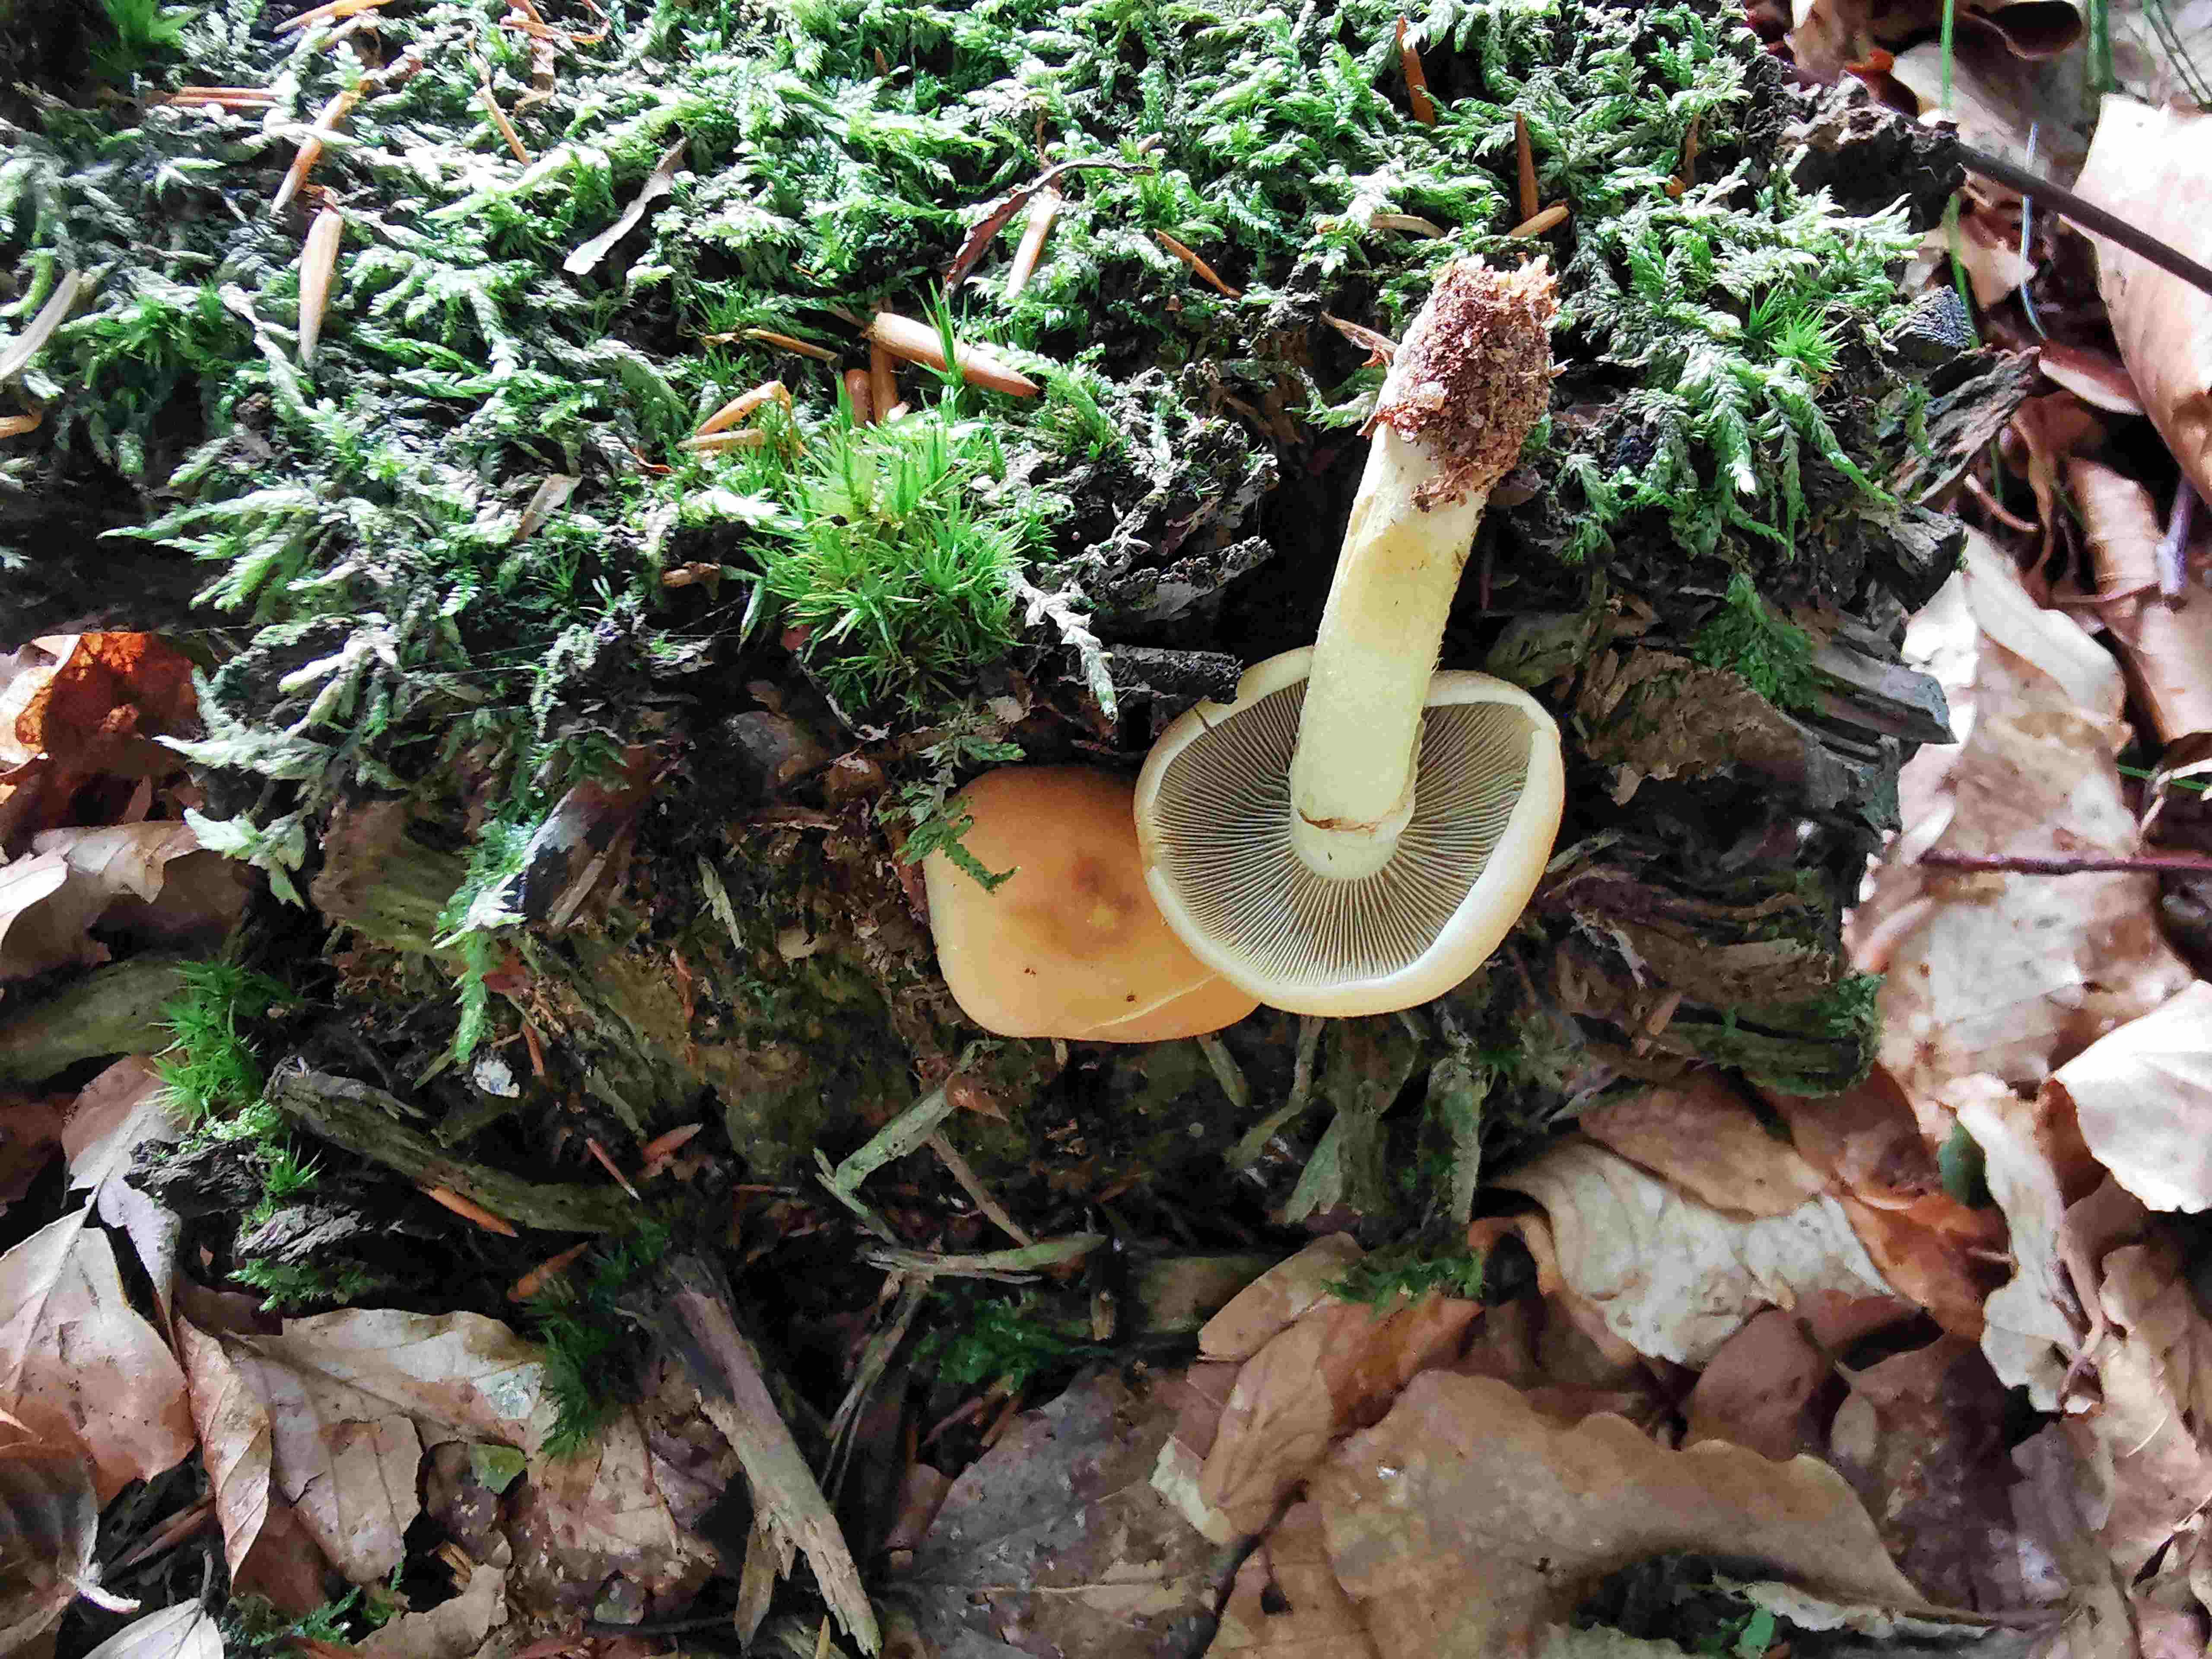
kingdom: Fungi
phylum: Basidiomycota
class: Agaricomycetes
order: Agaricales
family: Strophariaceae
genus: Hypholoma
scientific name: Hypholoma fasciculare
